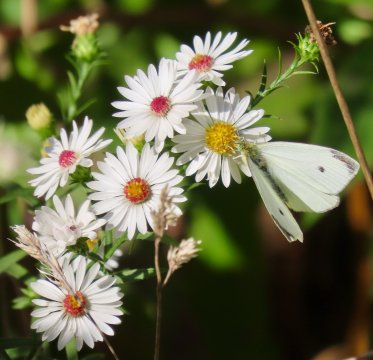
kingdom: Animalia
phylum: Arthropoda
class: Insecta
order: Lepidoptera
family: Pieridae
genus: Pieris
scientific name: Pieris rapae
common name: Cabbage White
